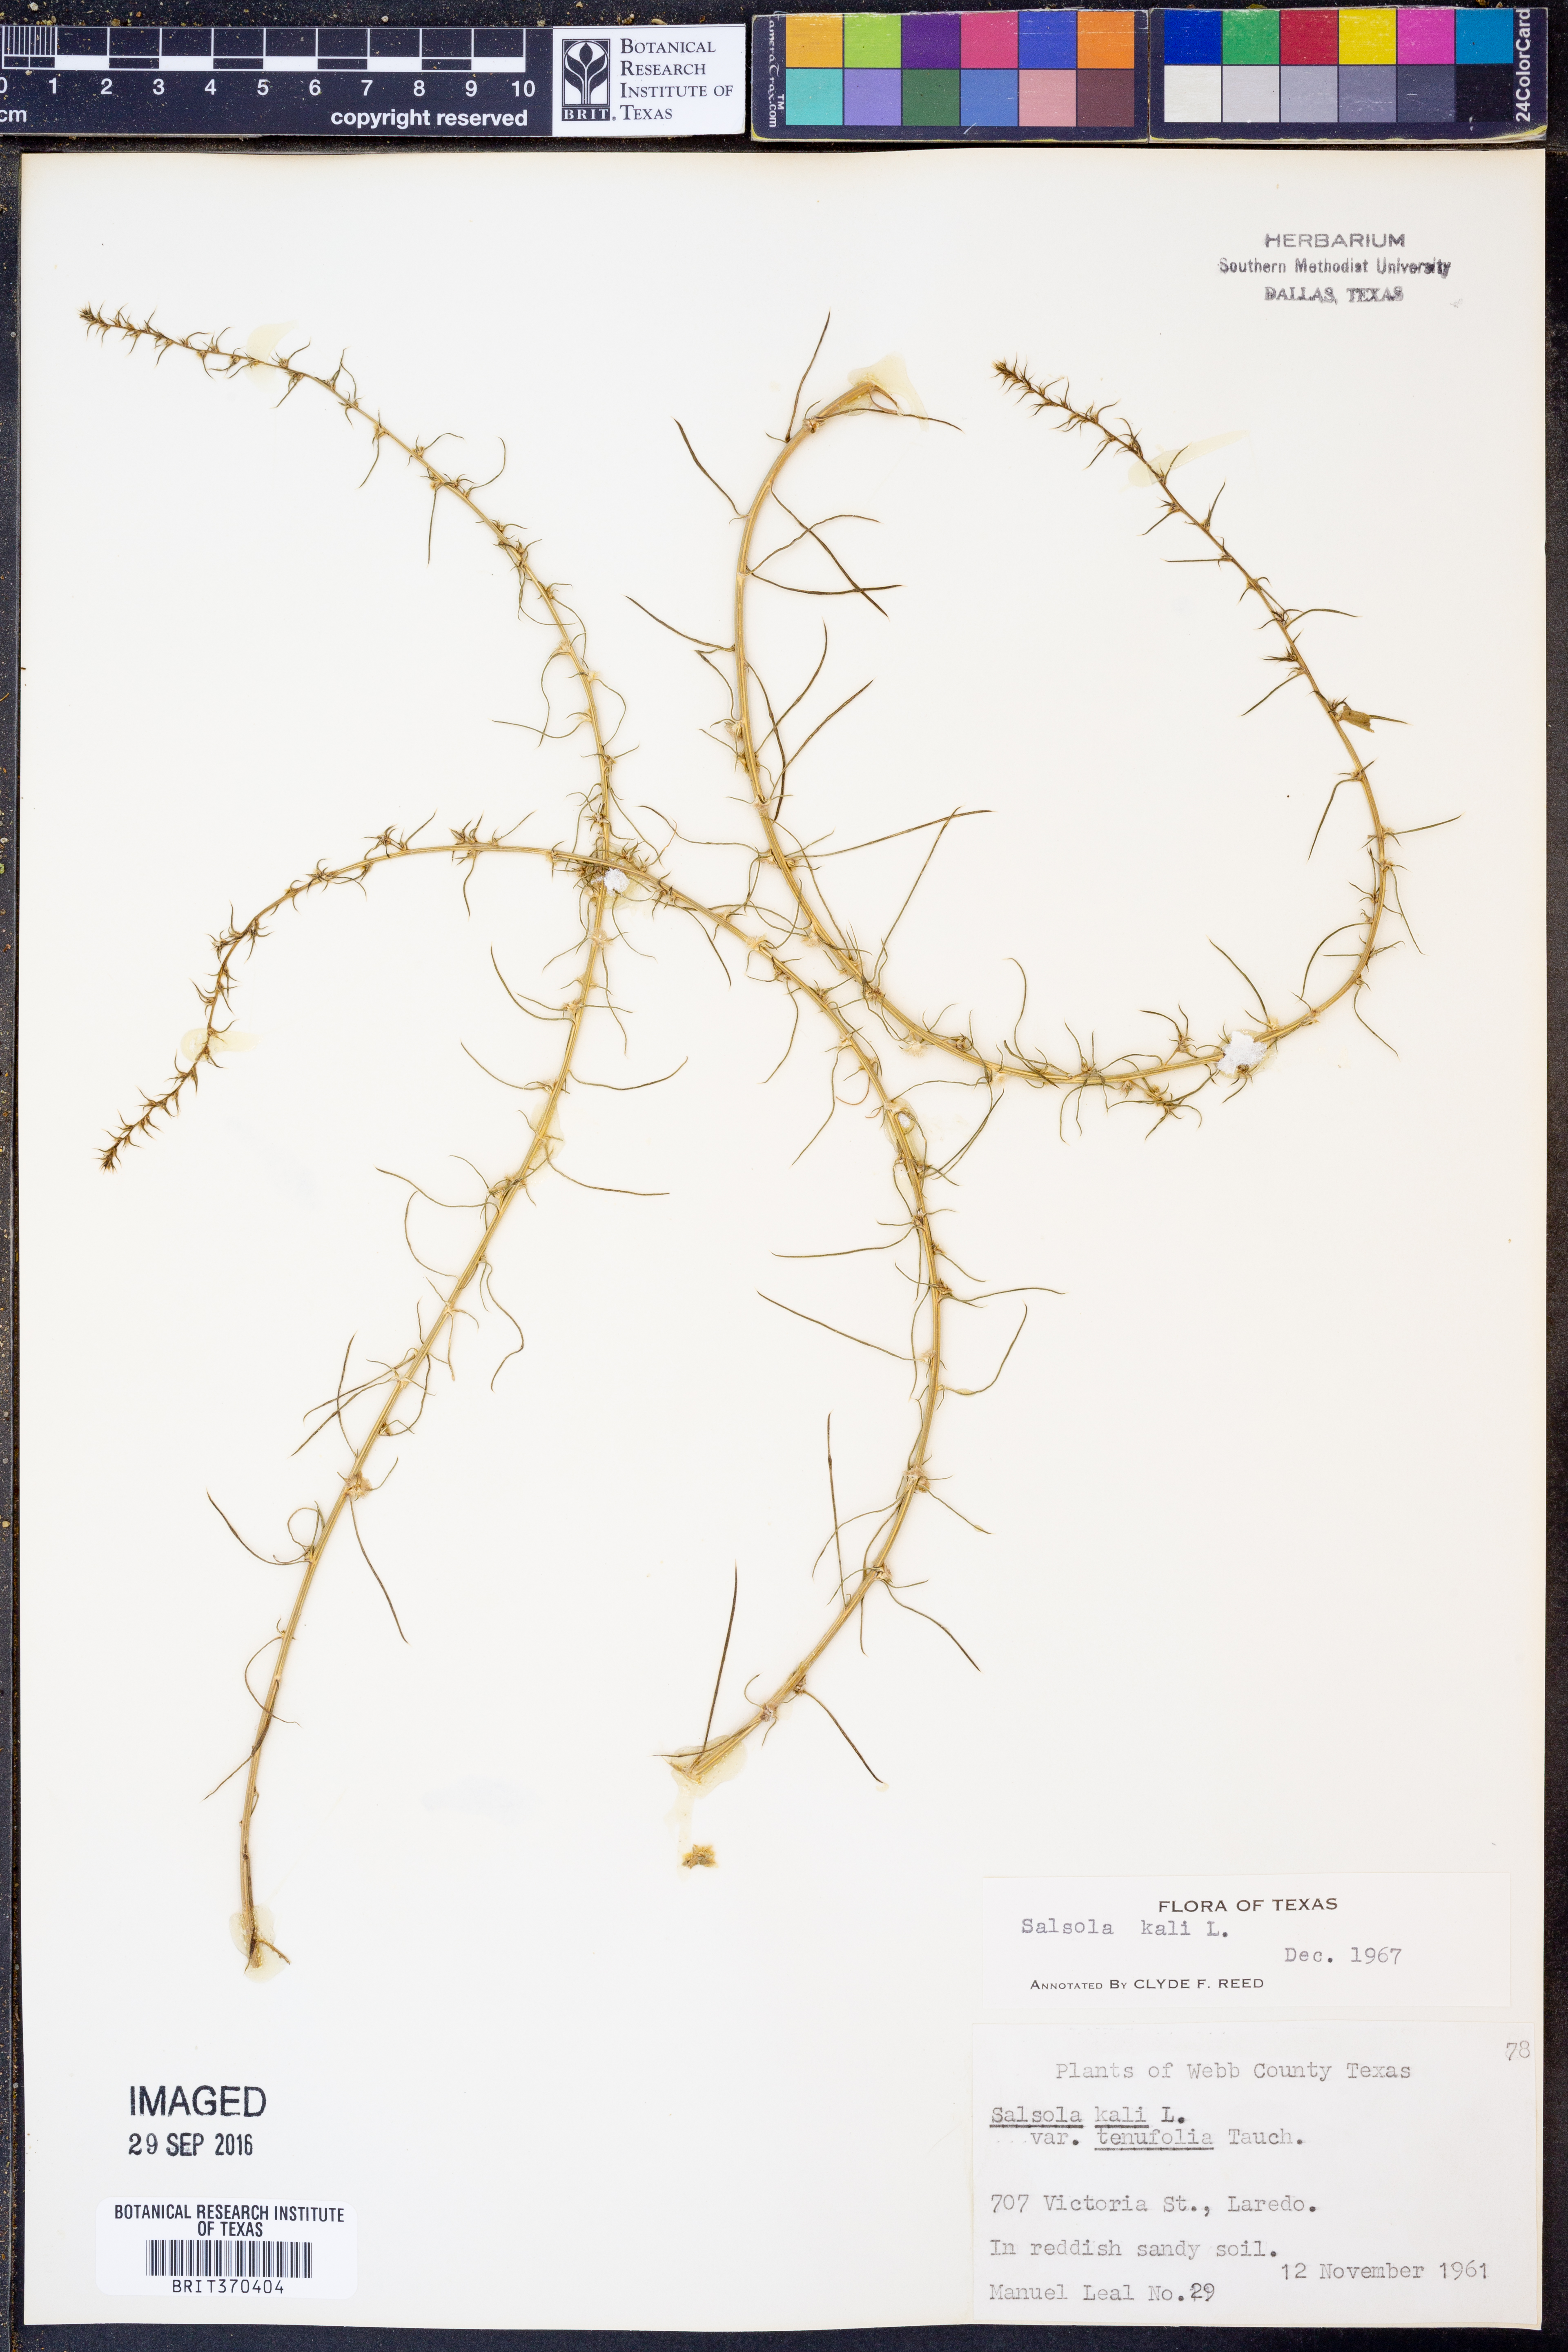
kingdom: Plantae
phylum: Tracheophyta
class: Magnoliopsida
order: Caryophyllales
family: Amaranthaceae
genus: Salsola
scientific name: Salsola kali
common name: Saltwort
